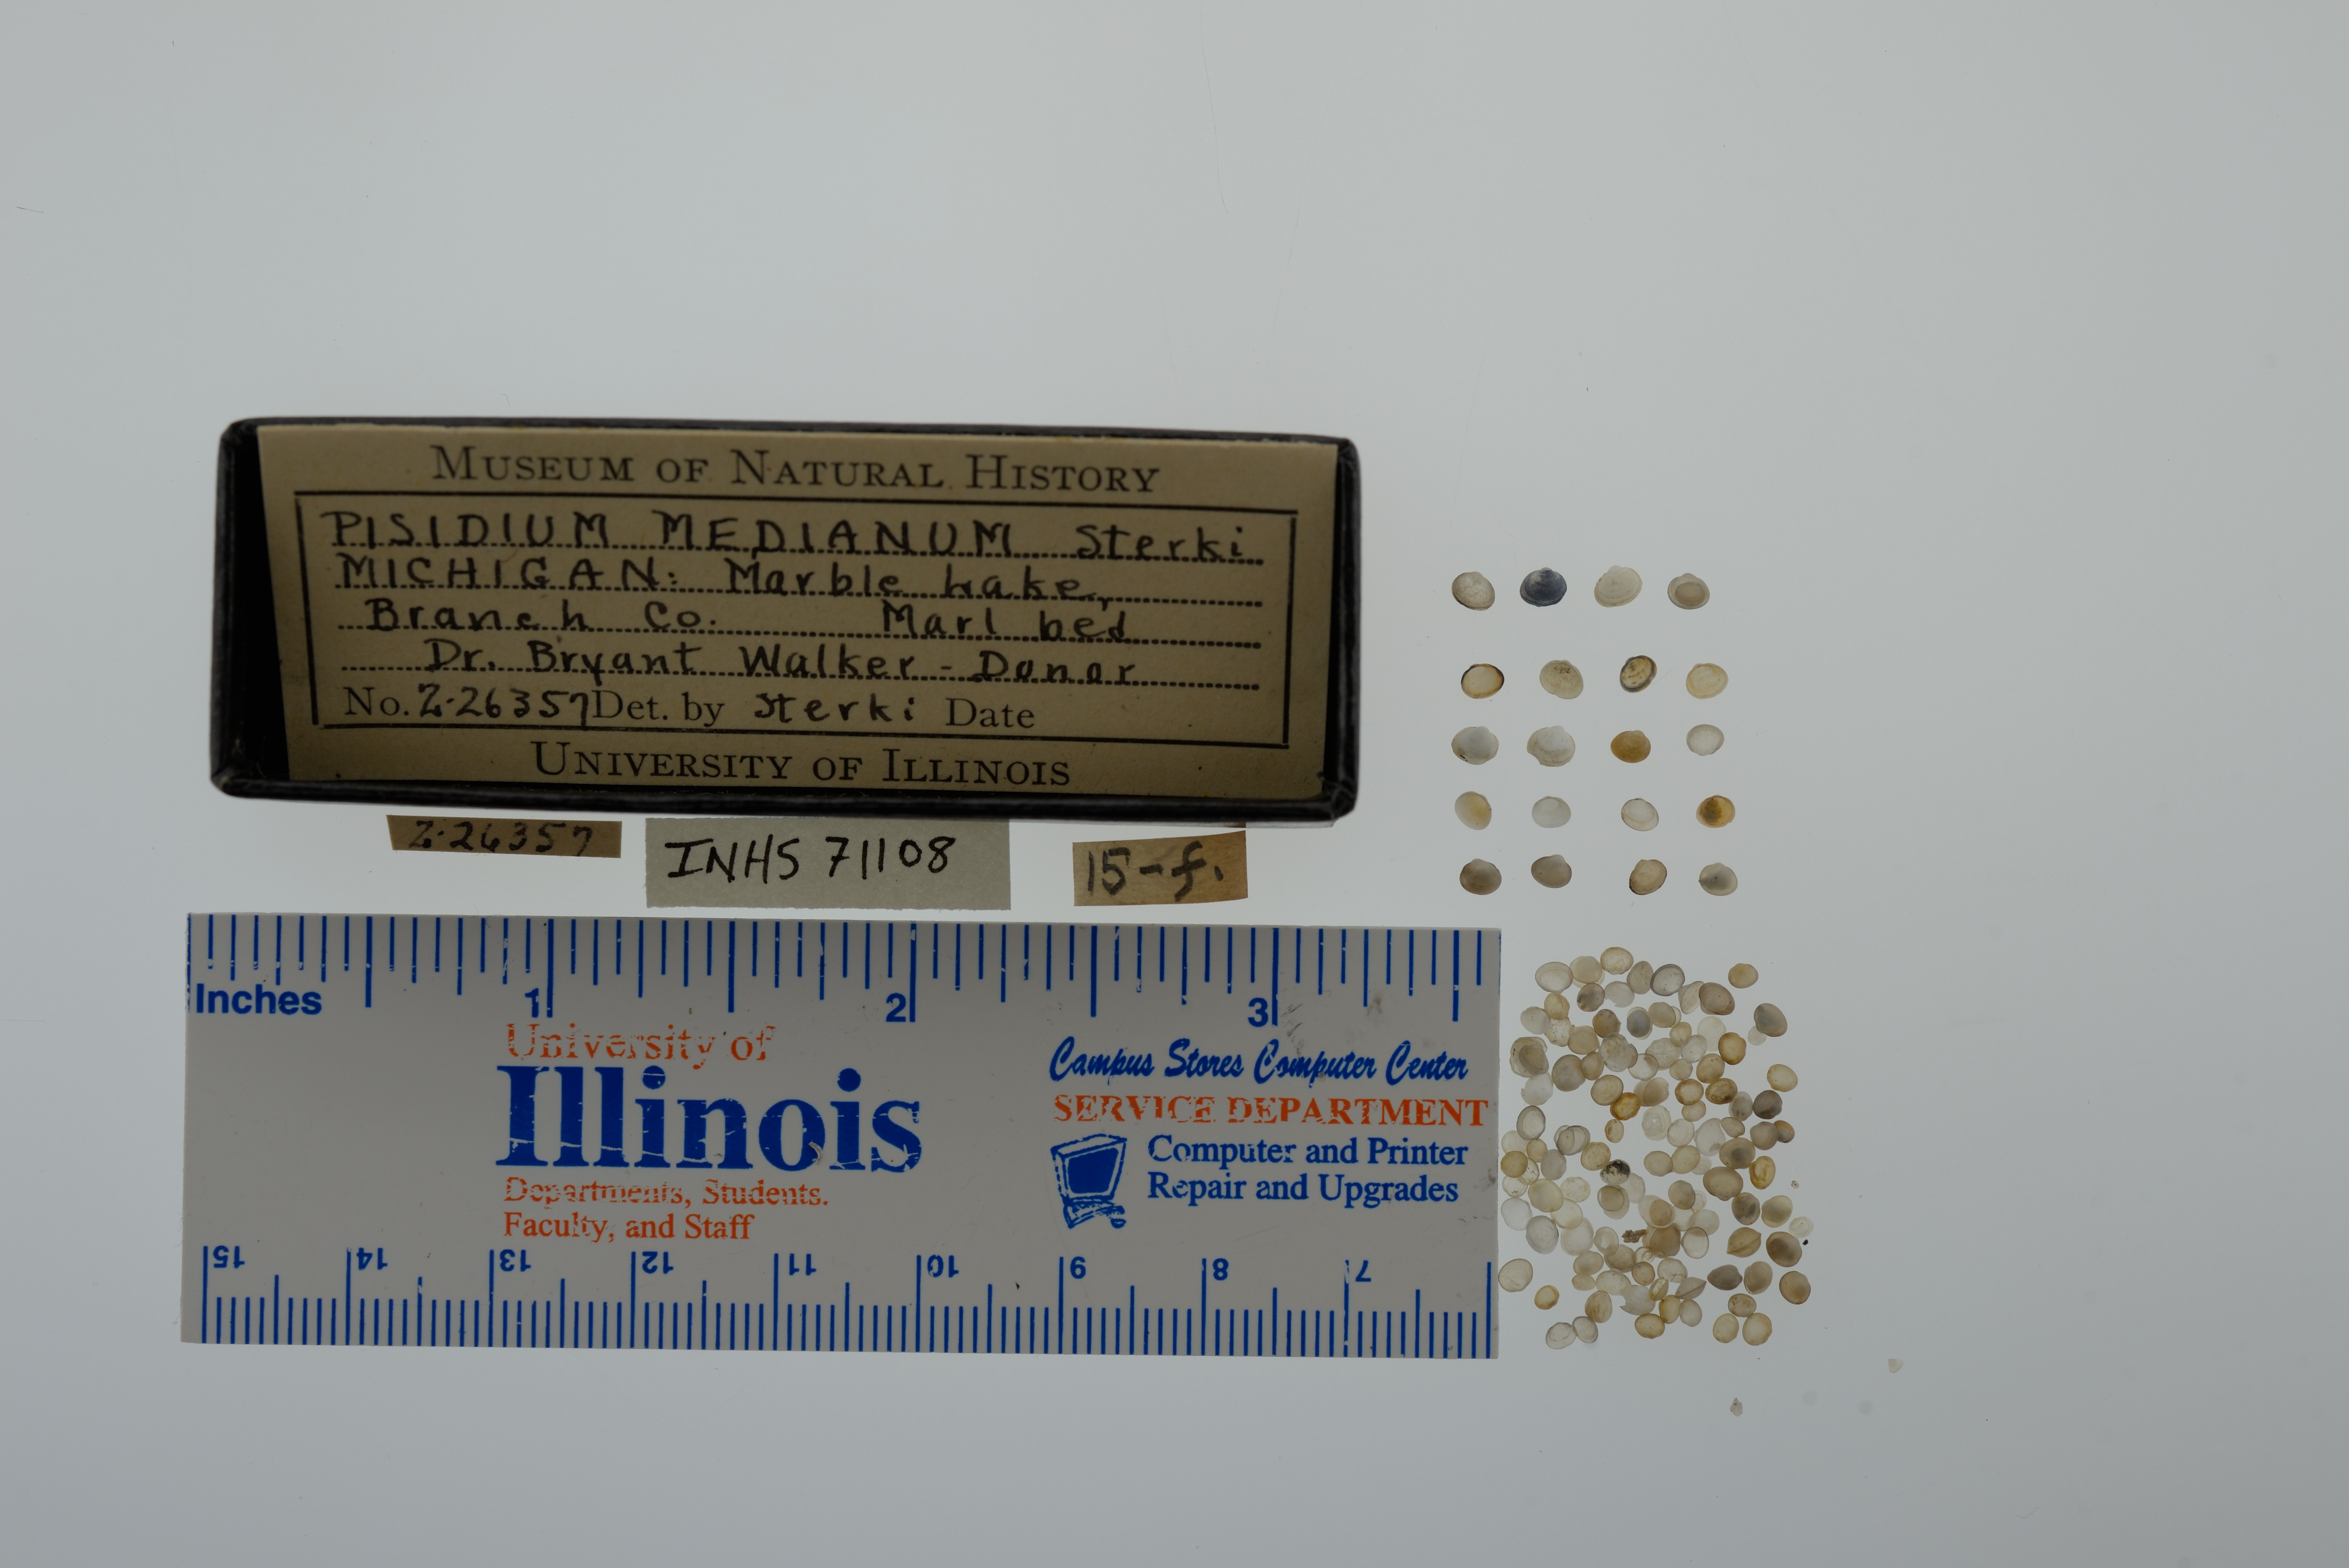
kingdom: Animalia
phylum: Mollusca
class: Bivalvia
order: Sphaeriida
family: Sphaeriidae
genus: Euglesa
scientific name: Euglesa ferruginea
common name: Rusty peaclam
